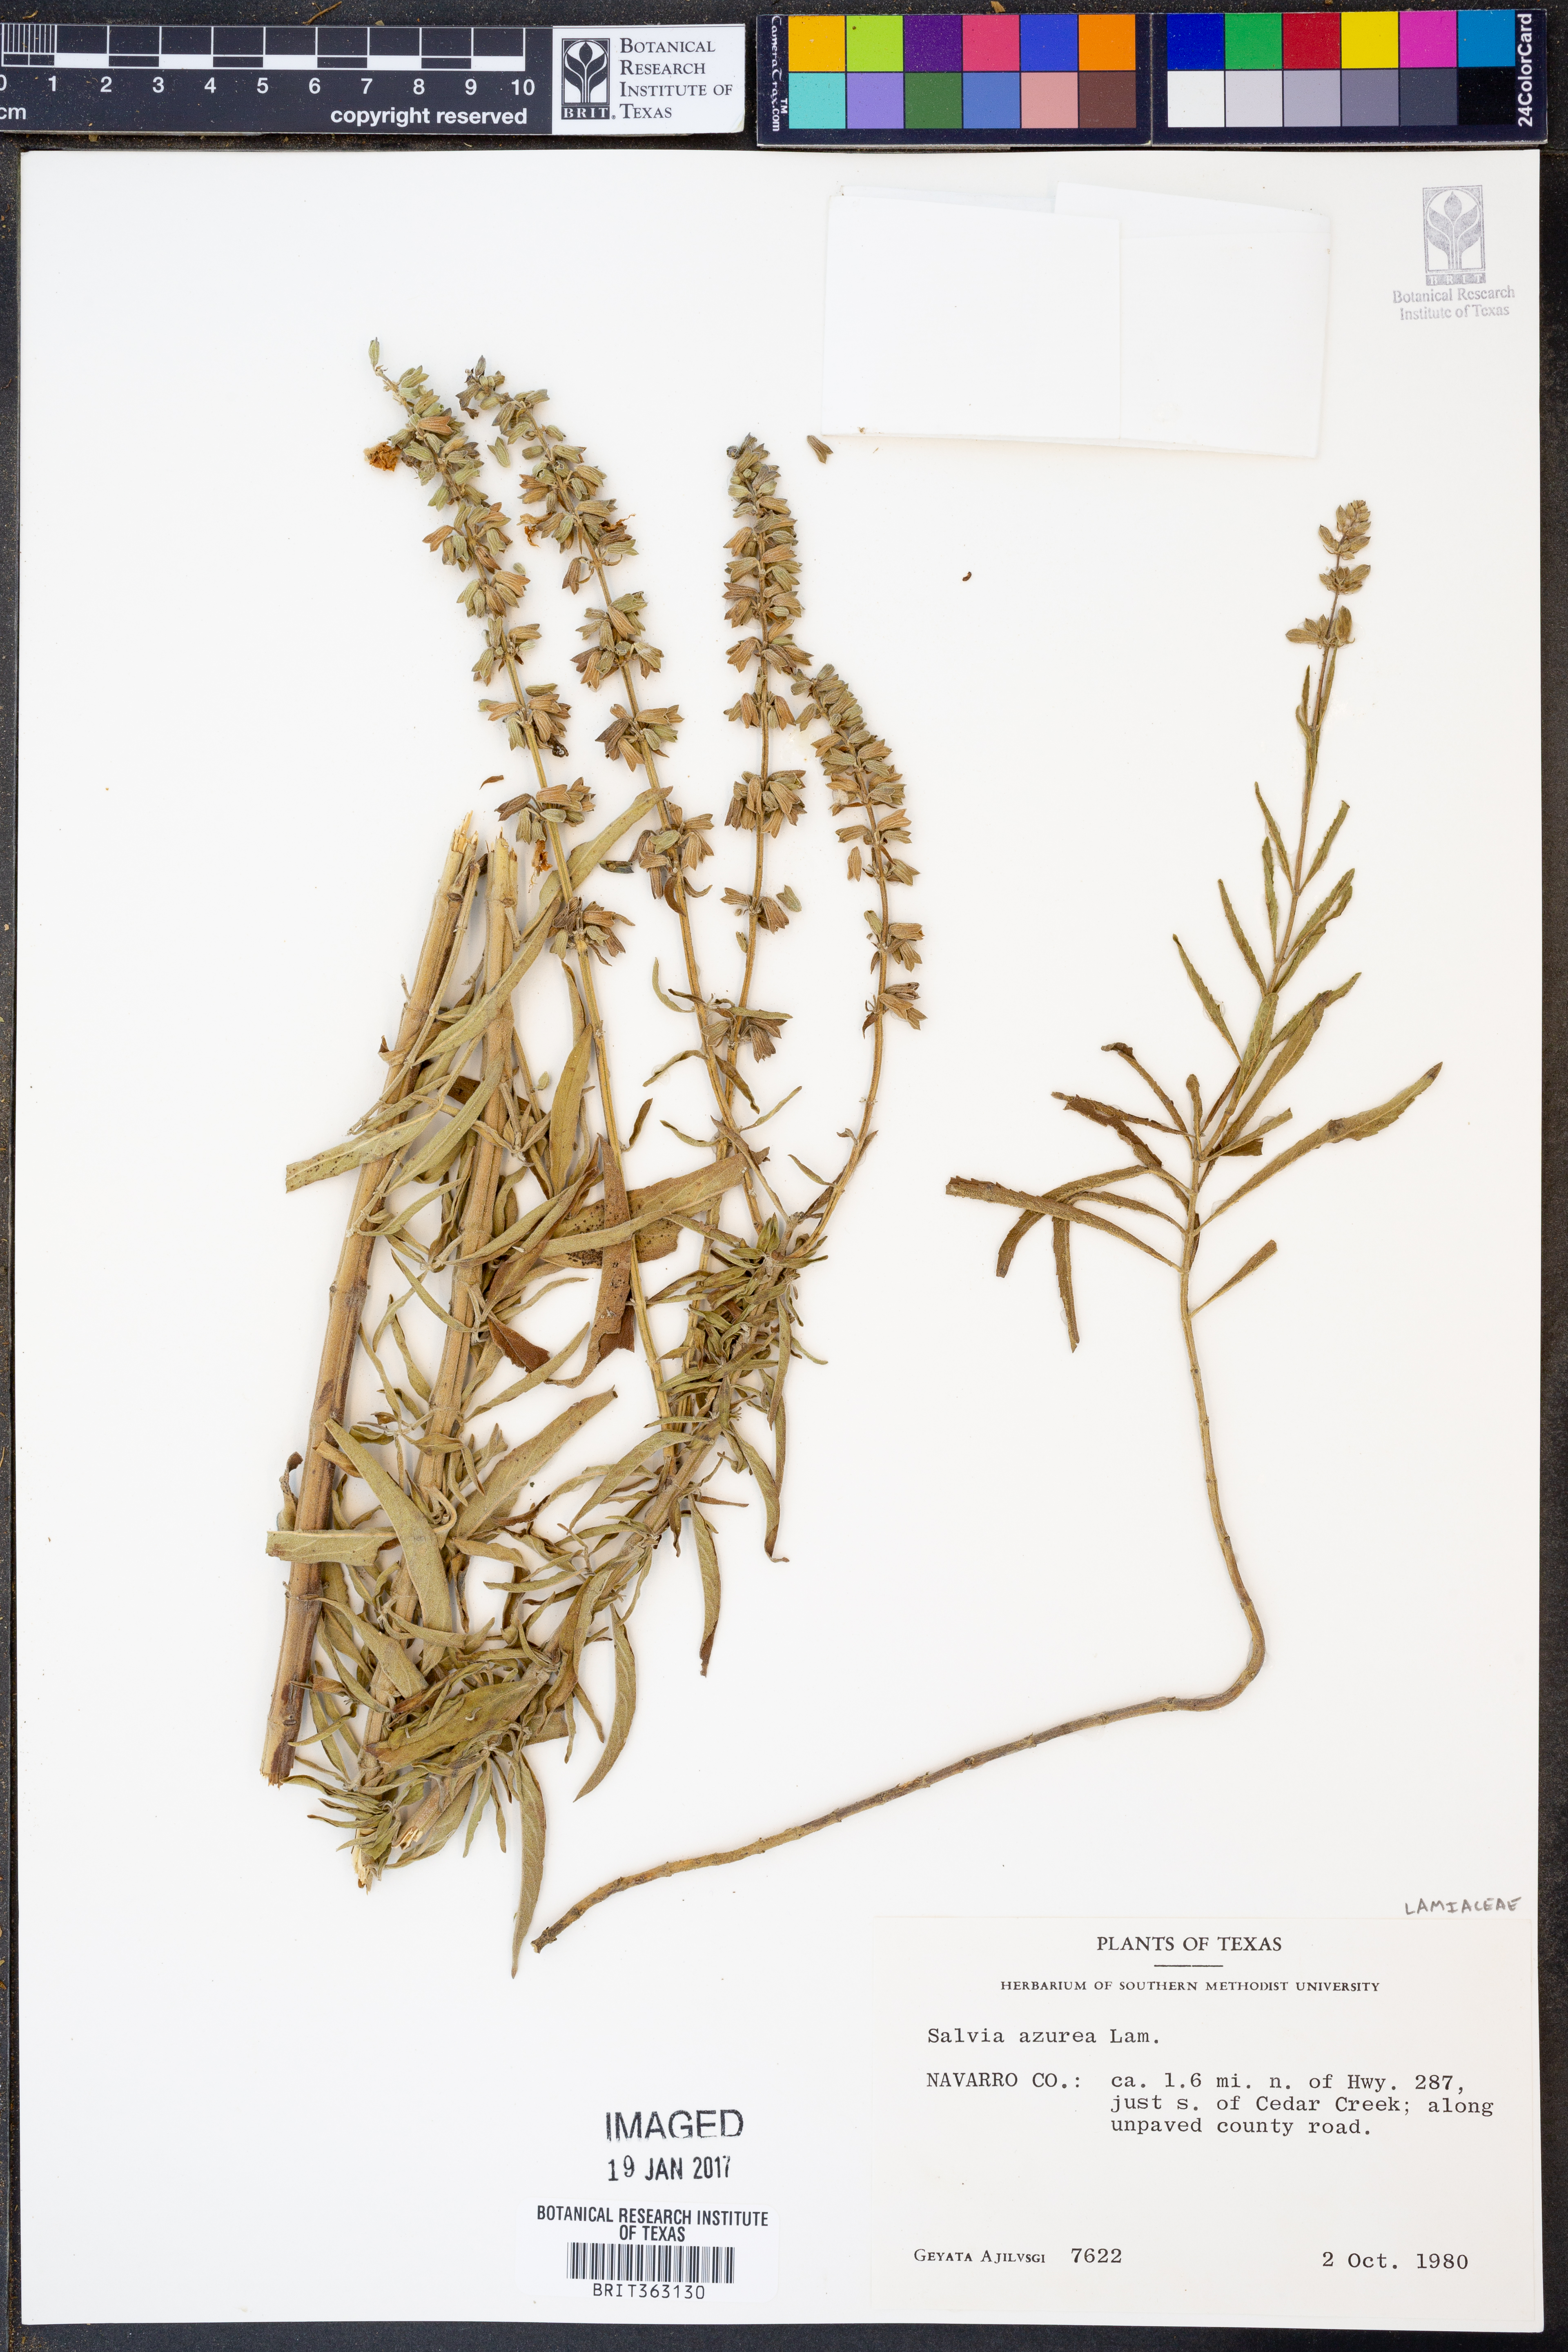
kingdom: Plantae
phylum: Tracheophyta
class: Magnoliopsida
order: Lamiales
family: Lamiaceae
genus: Salvia
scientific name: Salvia azurea
